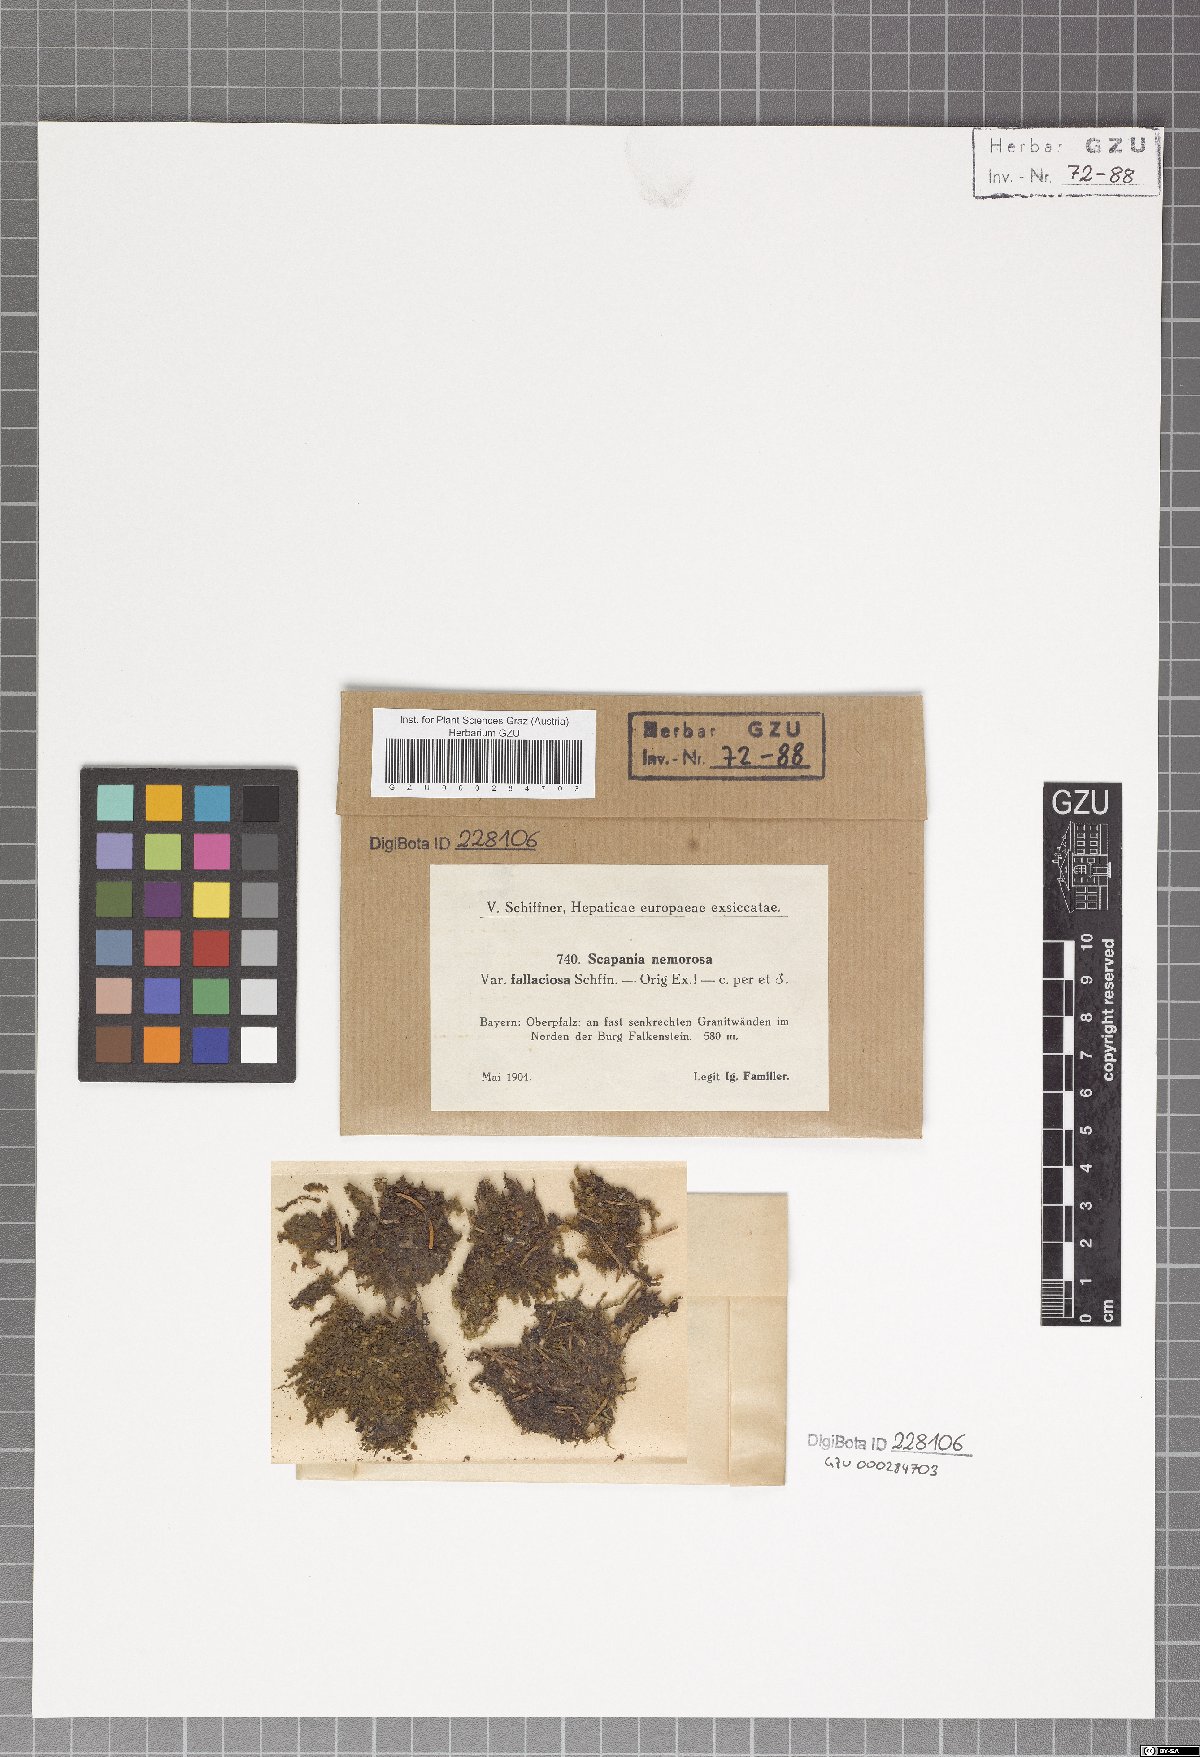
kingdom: Plantae
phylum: Marchantiophyta
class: Jungermanniopsida
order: Jungermanniales
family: Scapaniaceae
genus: Scapania
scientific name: Scapania nemorea
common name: Grove earwort
